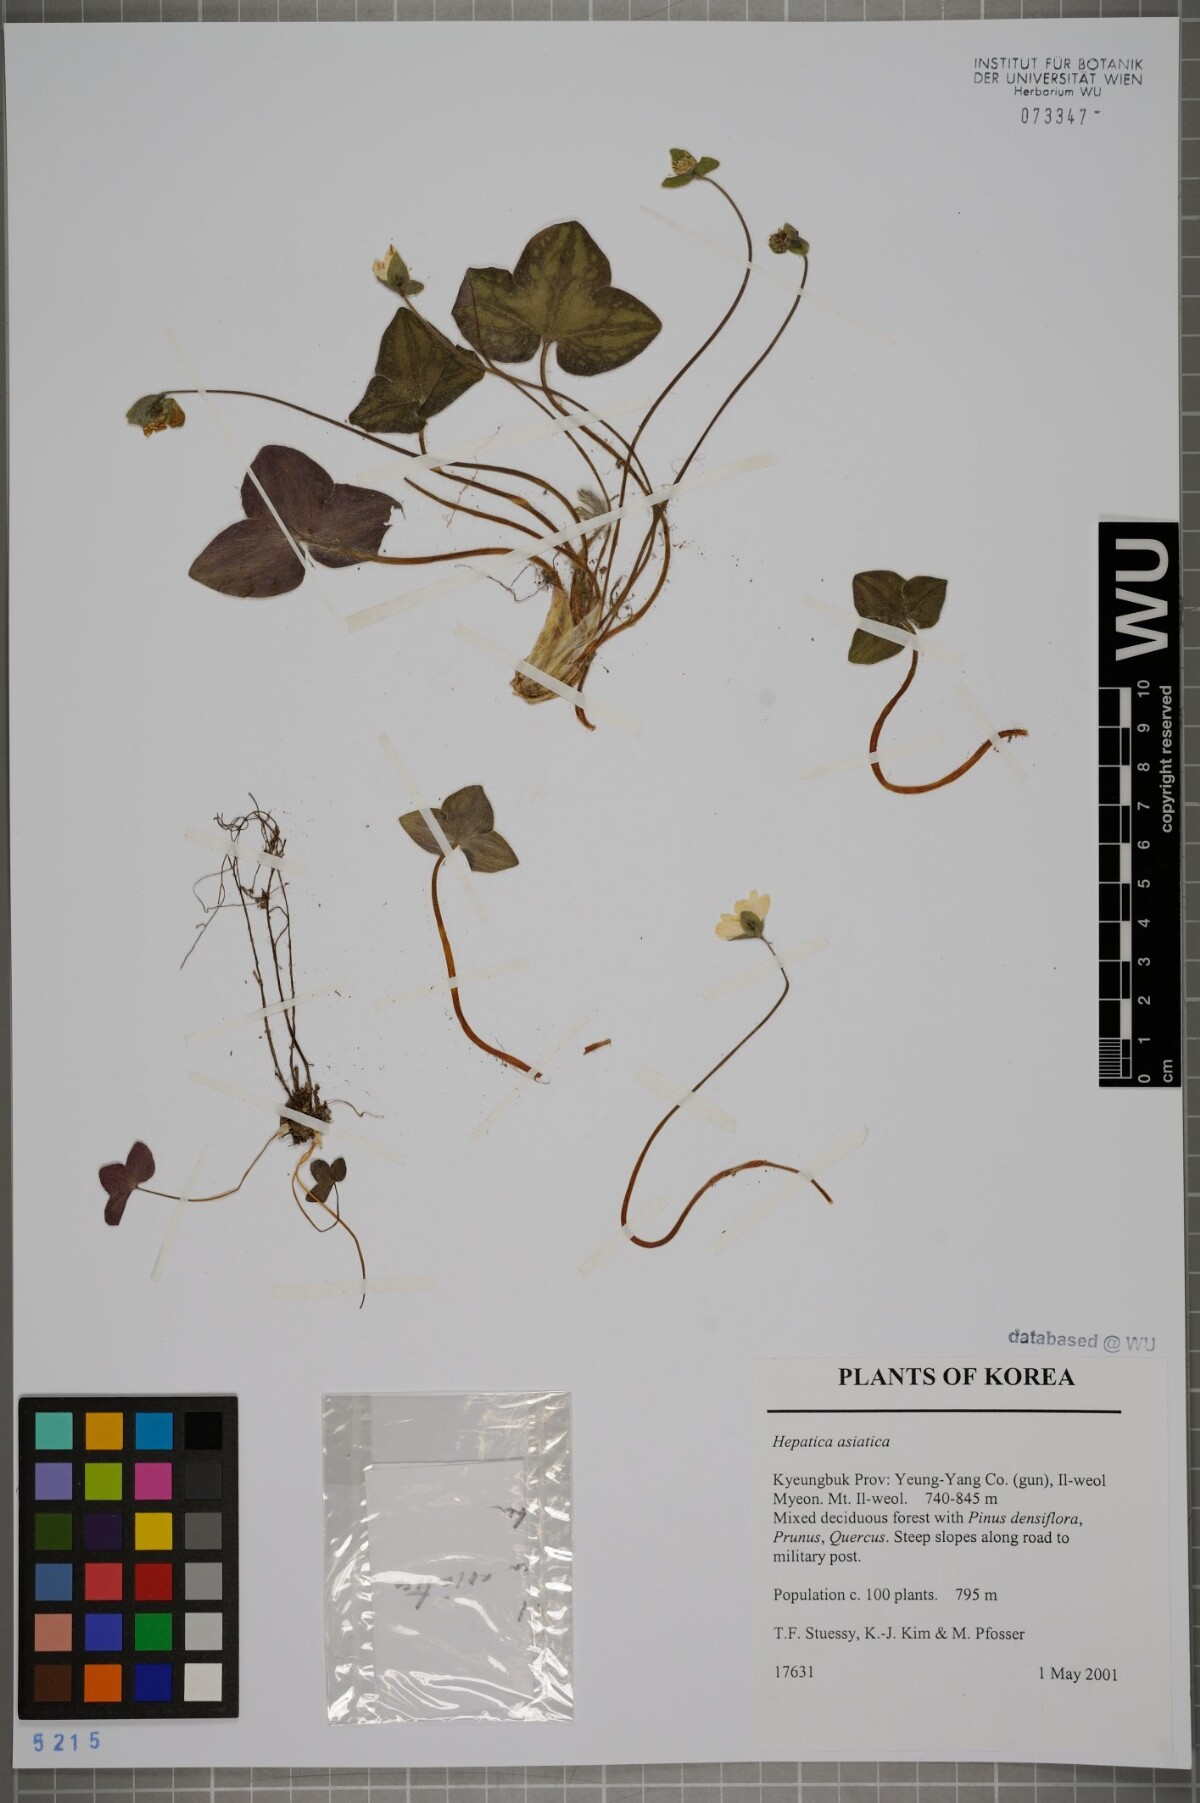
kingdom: Plantae
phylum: Tracheophyta
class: Magnoliopsida
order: Ranunculales
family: Ranunculaceae
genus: Hepatica
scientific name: Hepatica asiatica
